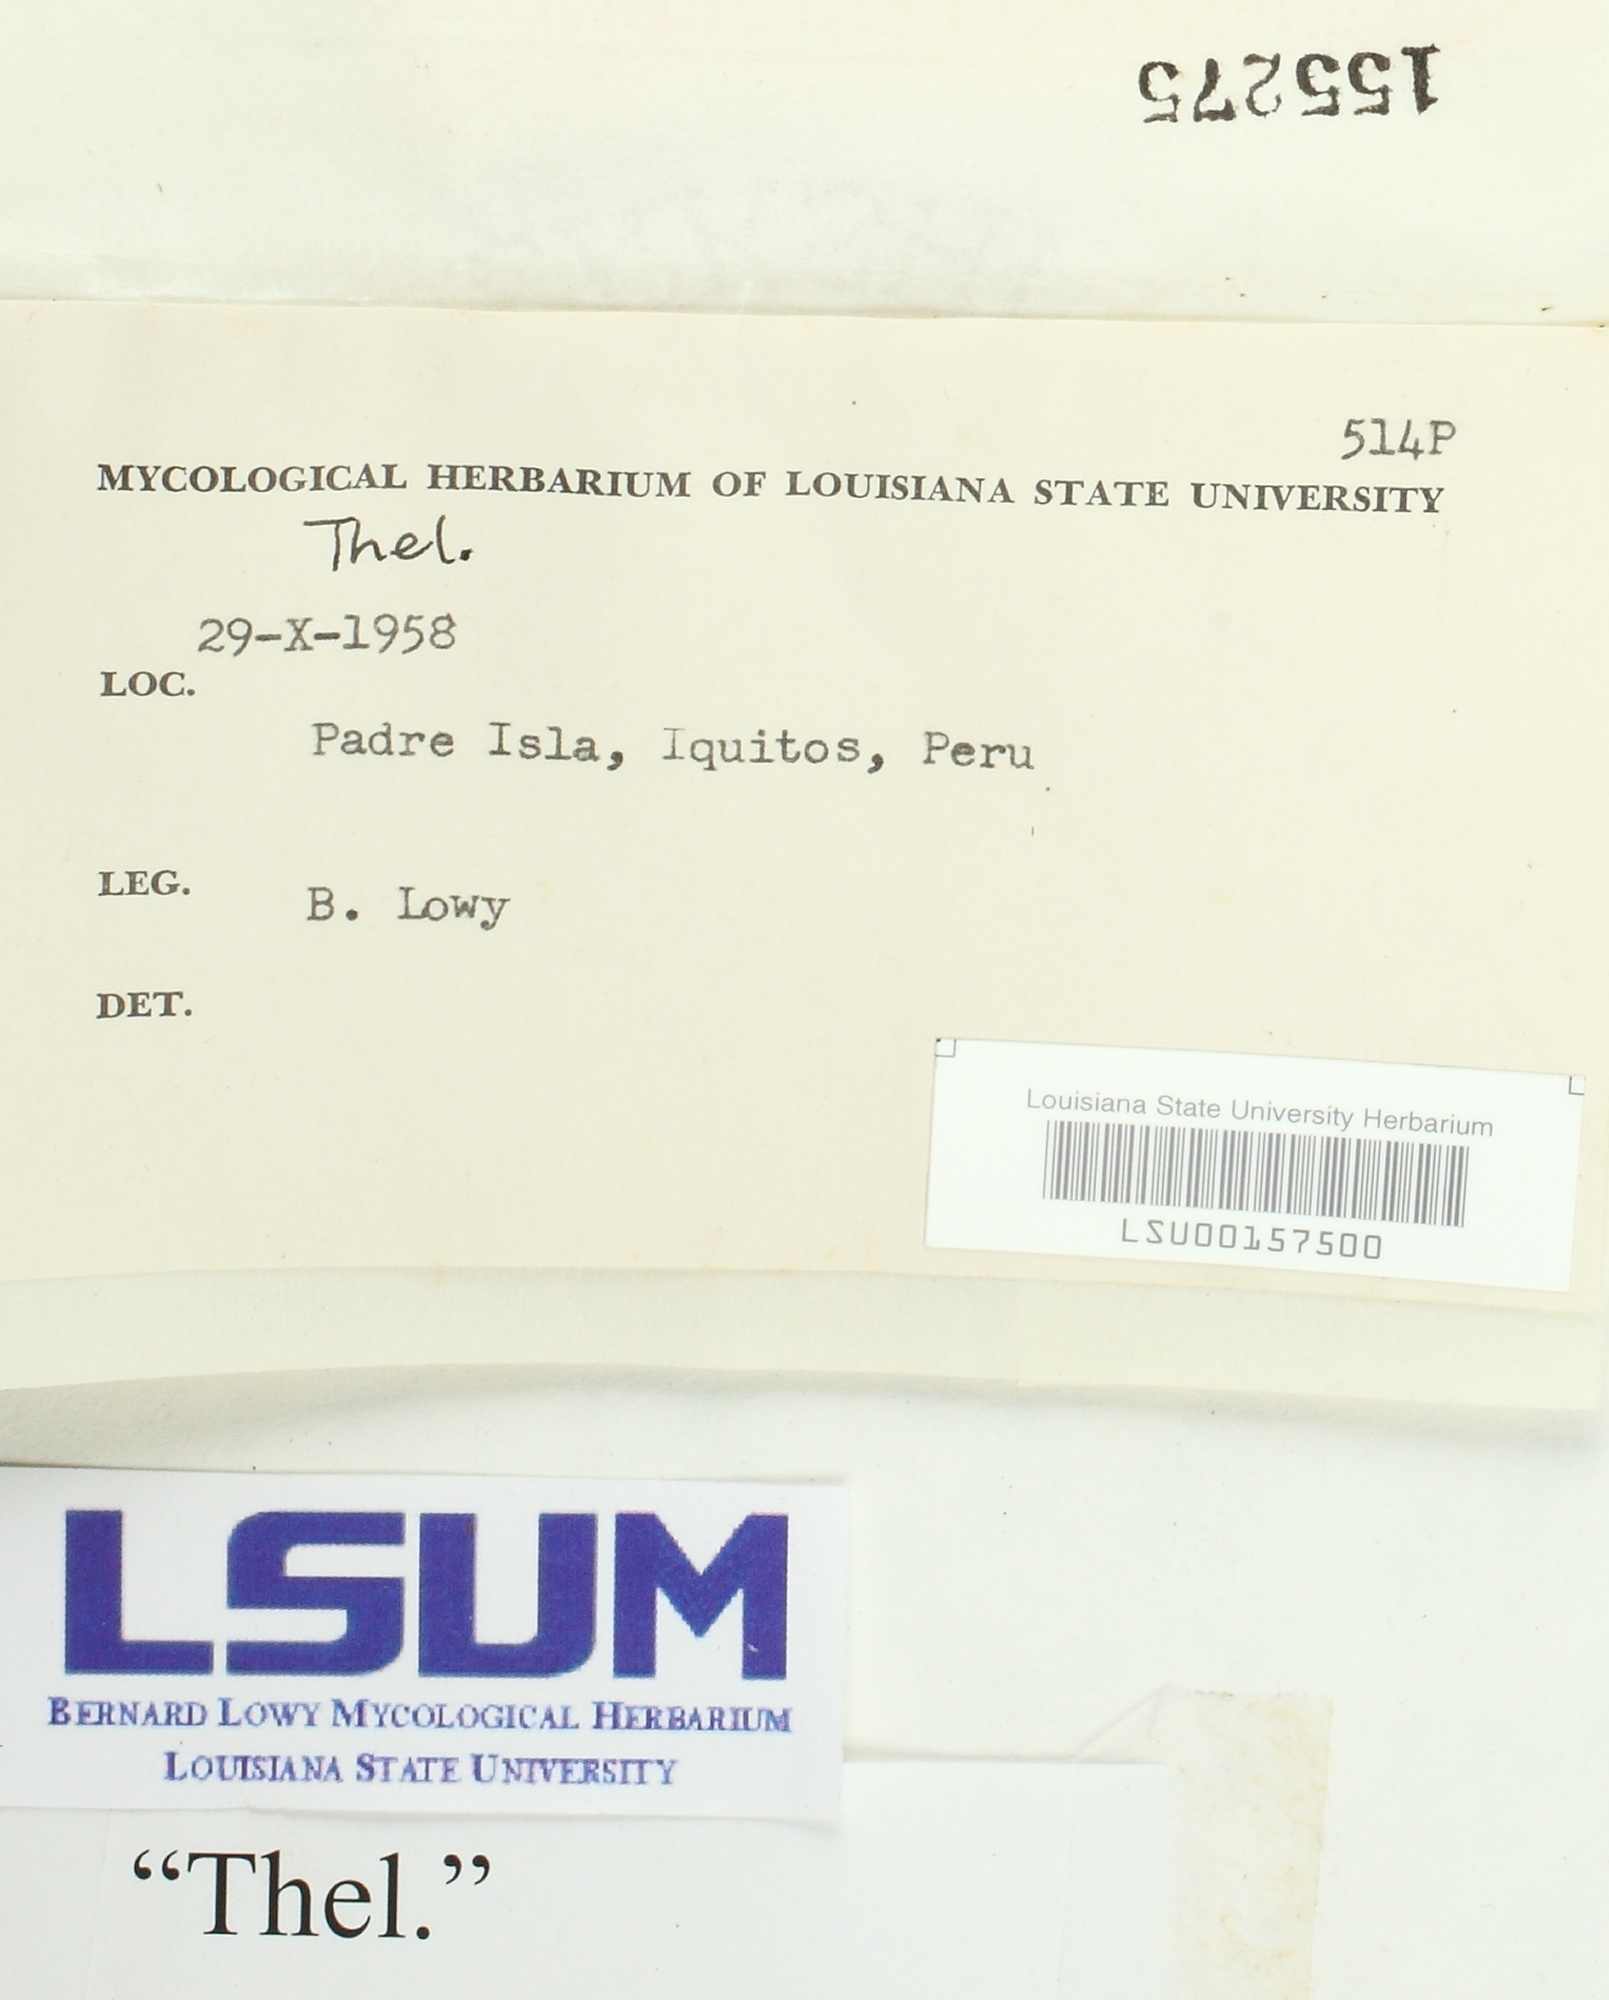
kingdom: Fungi
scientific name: Fungi
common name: Fungi
